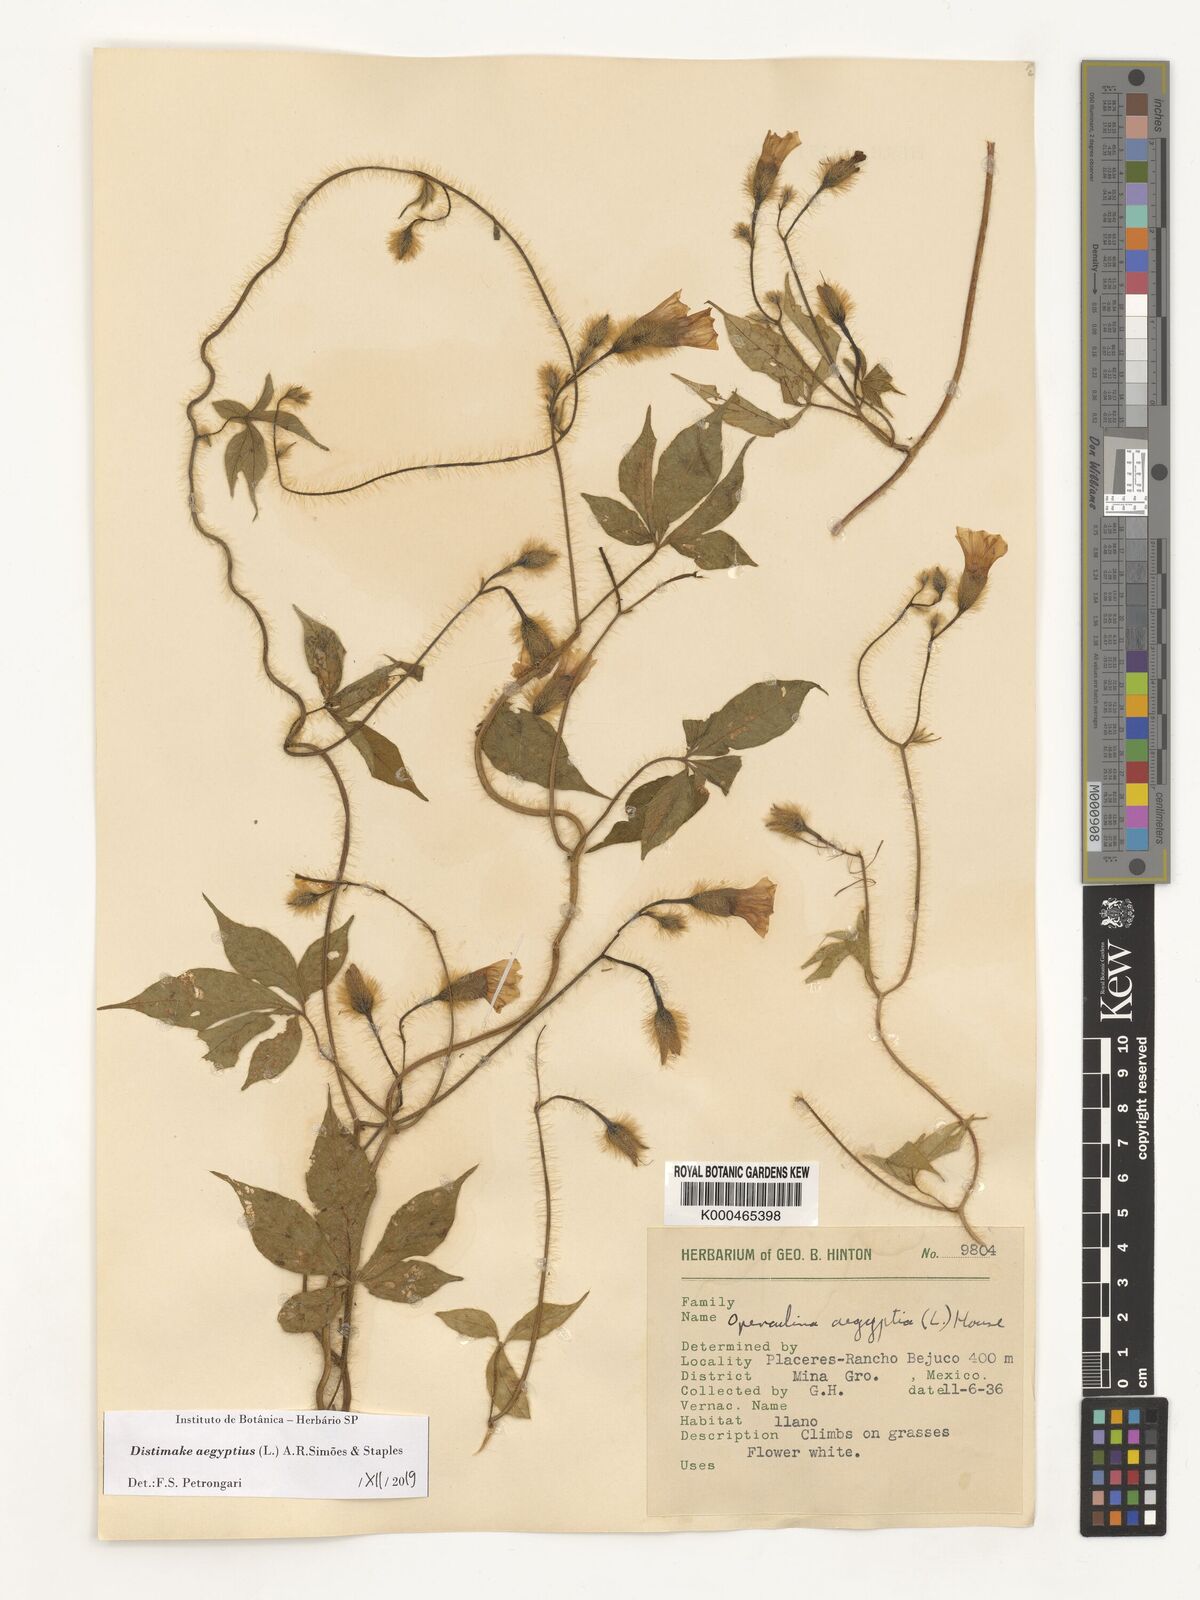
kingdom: Plantae
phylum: Tracheophyta
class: Magnoliopsida
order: Solanales
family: Convolvulaceae
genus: Distimake
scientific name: Distimake aegyptius
